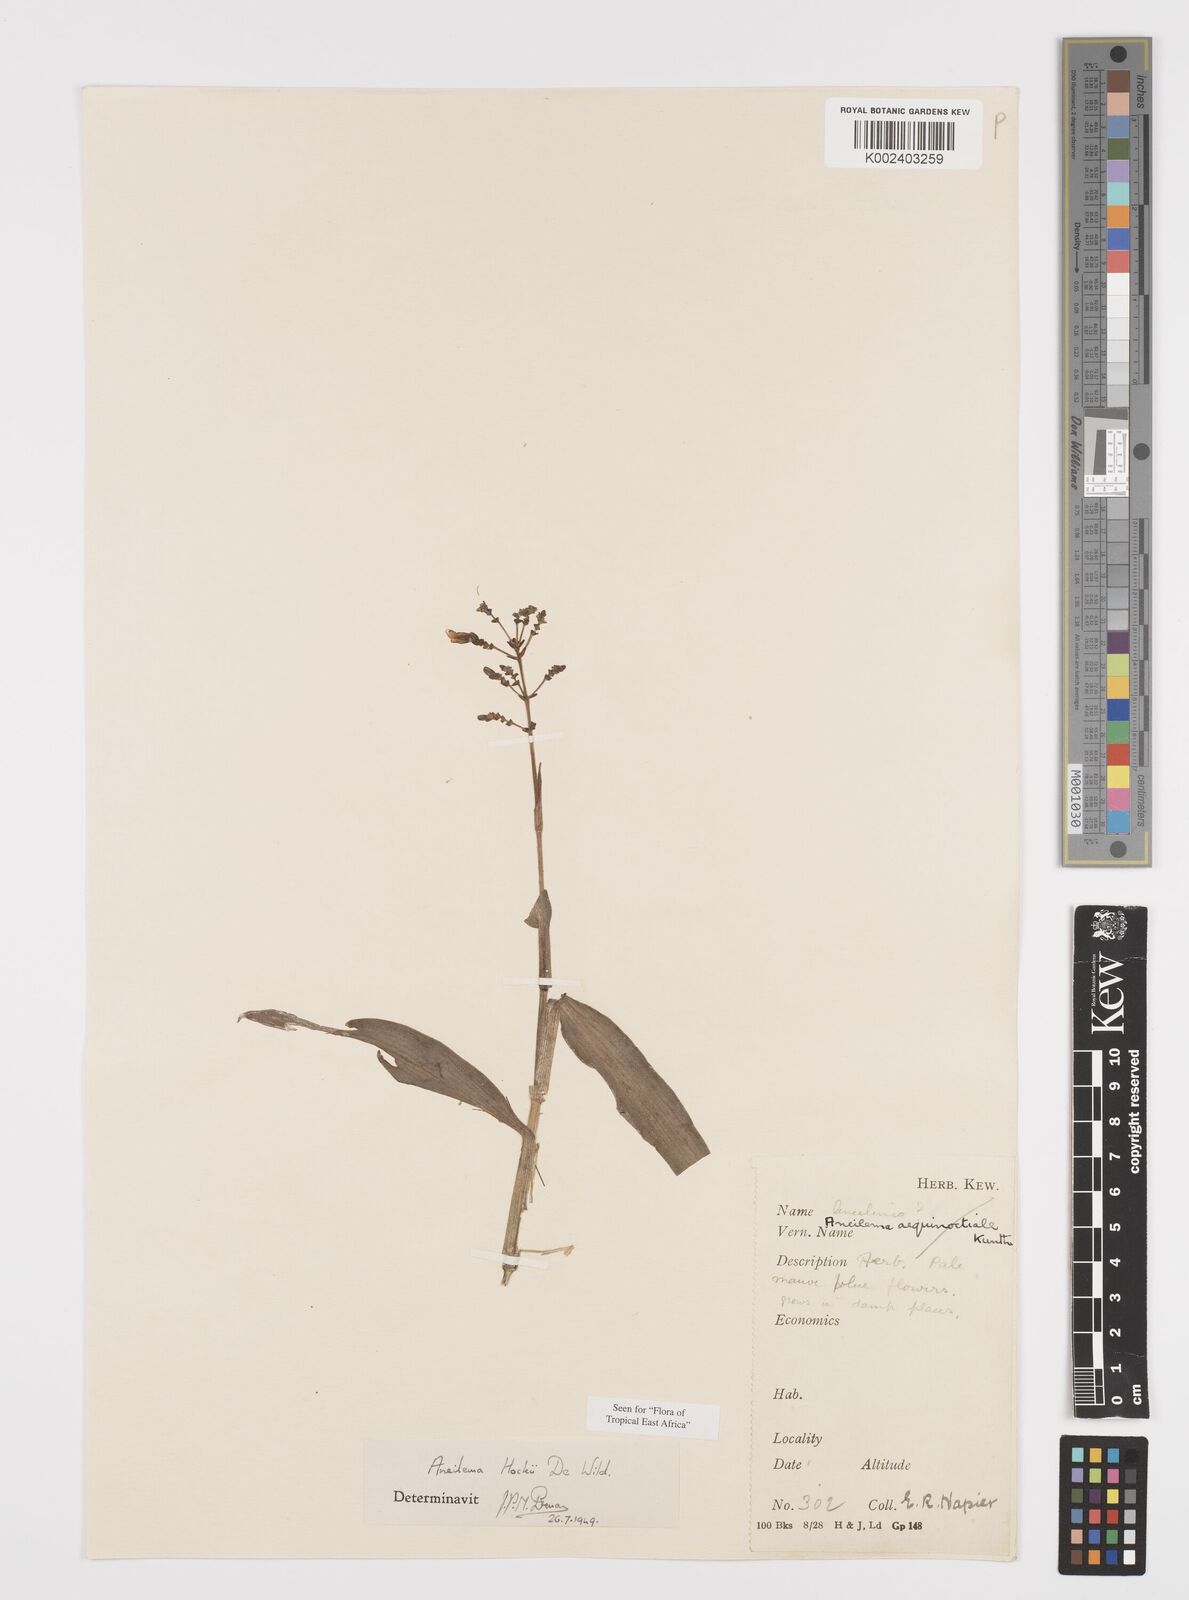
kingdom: Plantae
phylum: Tracheophyta
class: Liliopsida
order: Commelinales
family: Commelinaceae
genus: Aneilema
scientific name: Aneilema hockii
